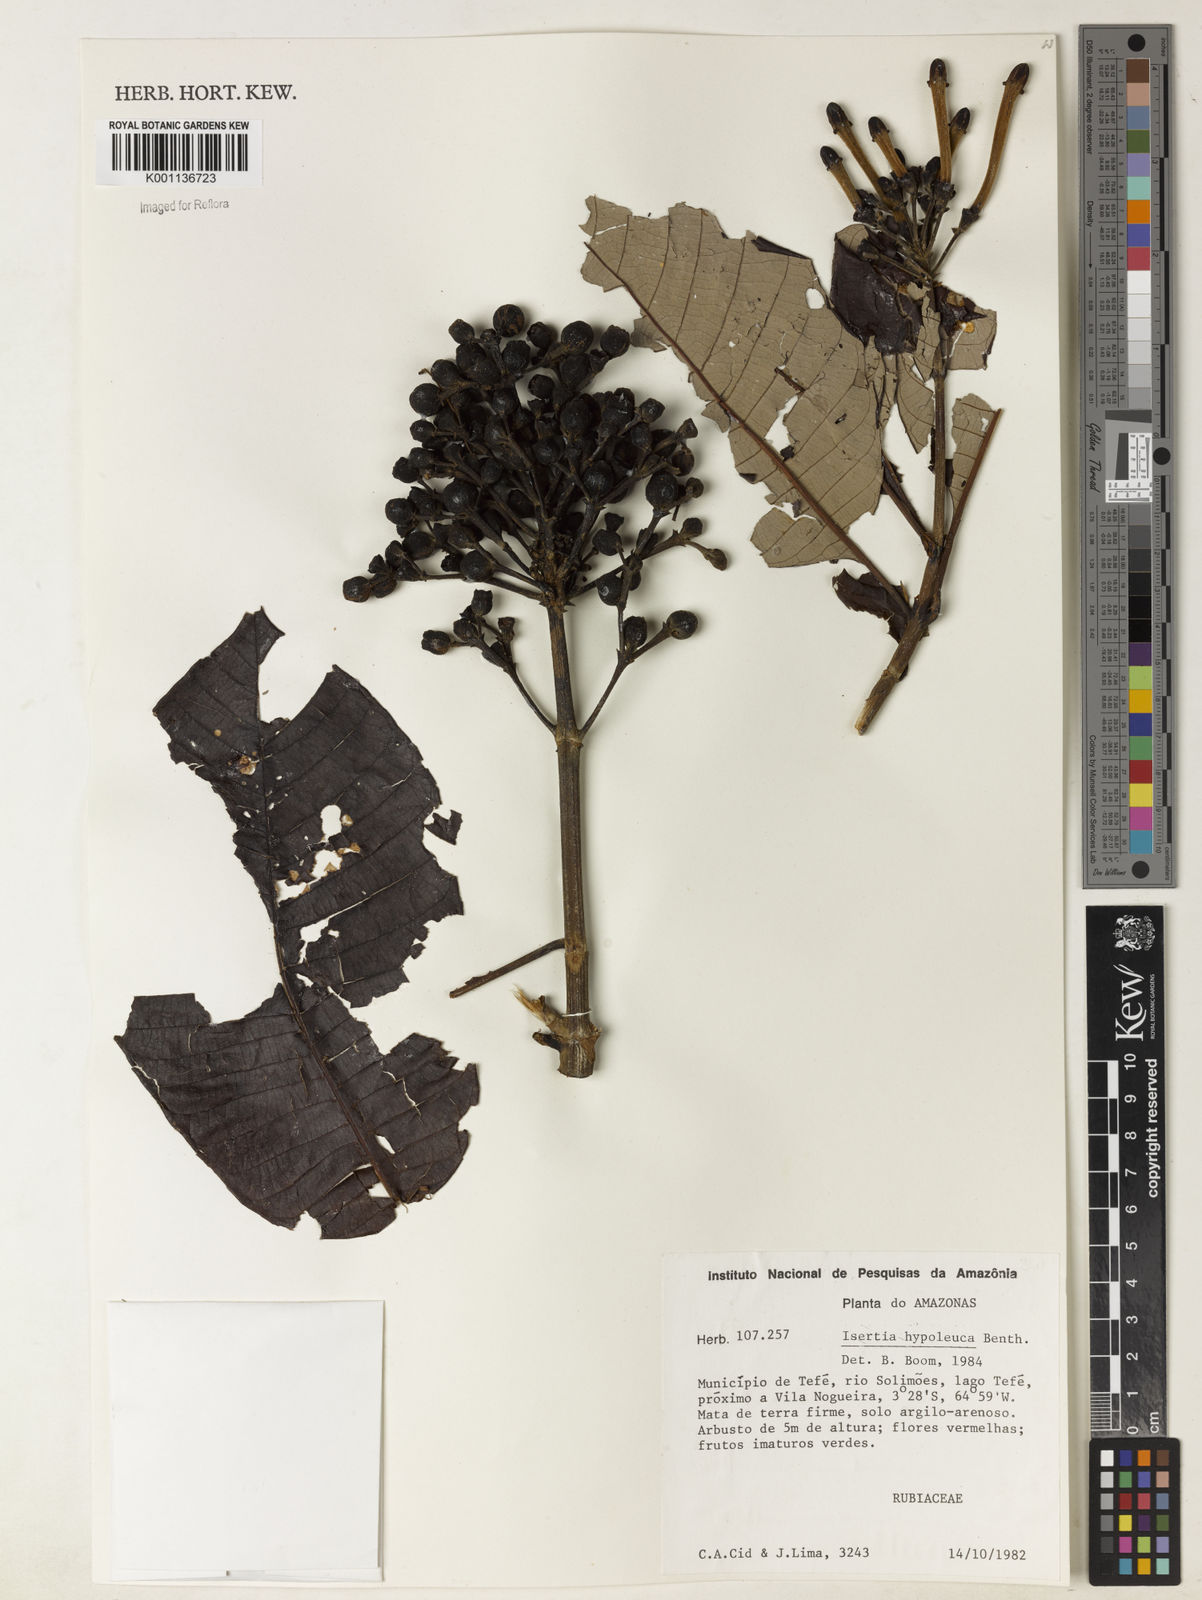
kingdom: Plantae
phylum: Tracheophyta
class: Magnoliopsida
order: Gentianales
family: Rubiaceae
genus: Isertia
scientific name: Isertia hypoleuca
